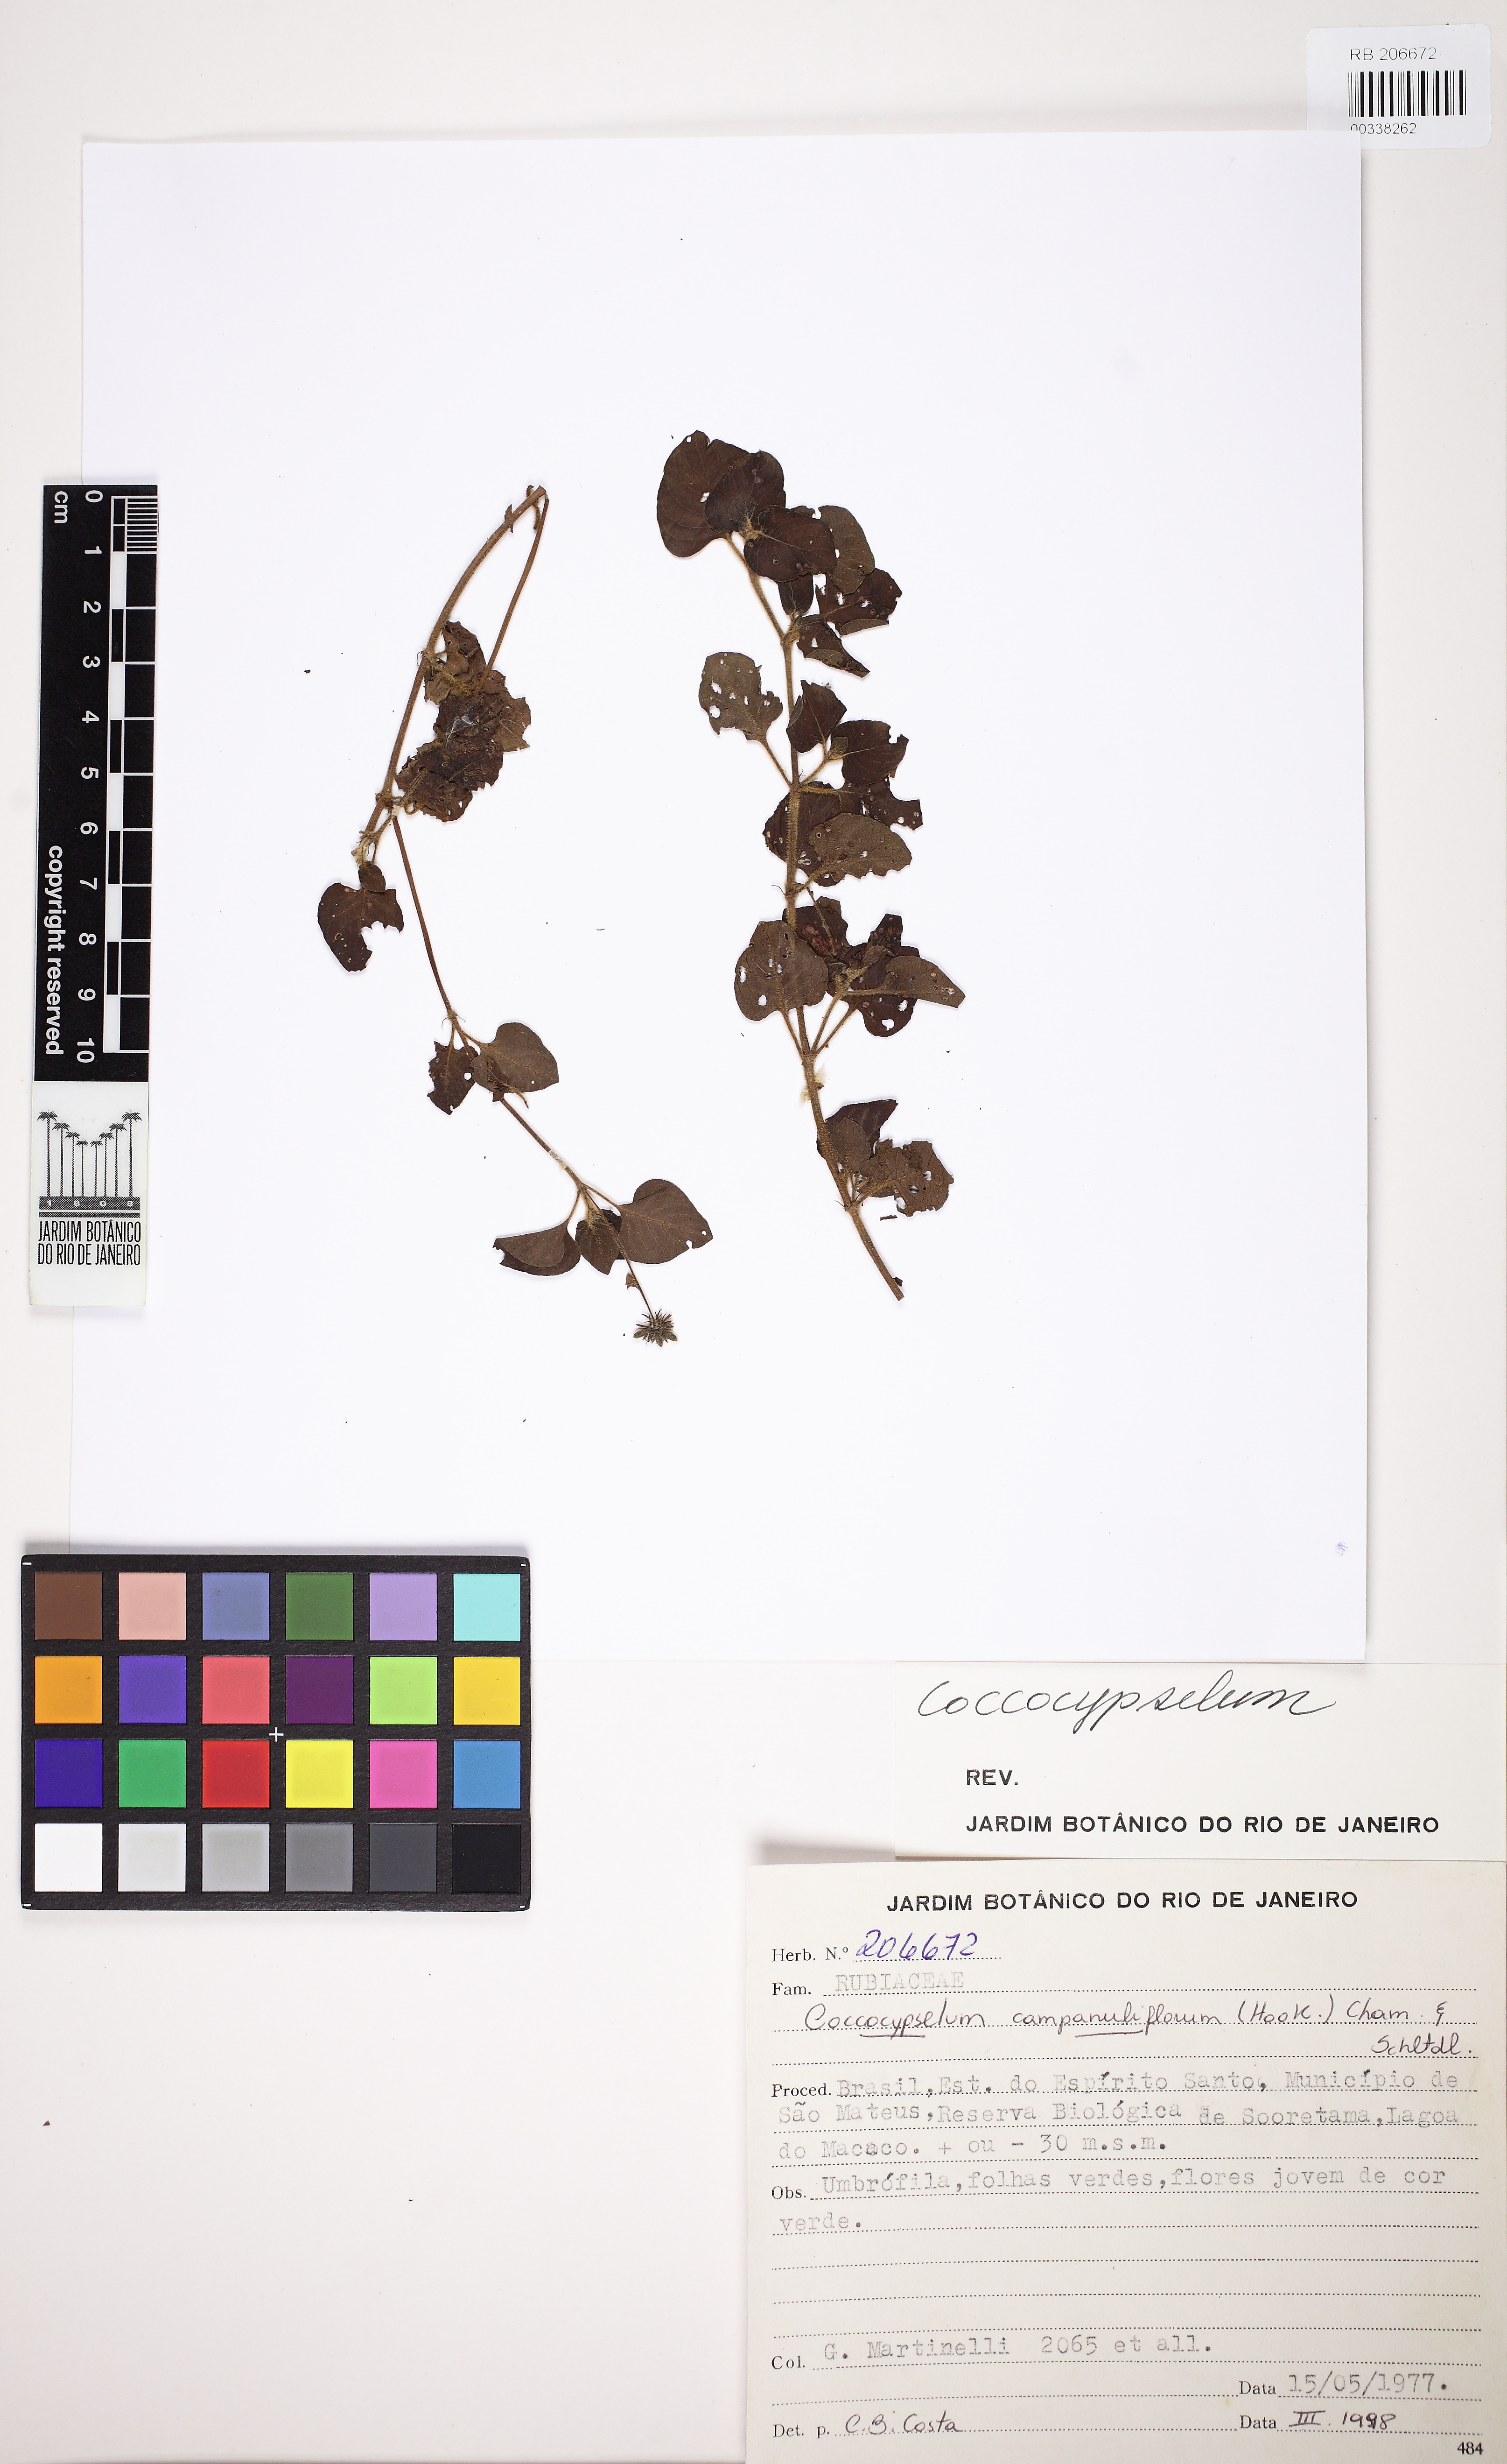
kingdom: Plantae
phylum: Tracheophyta
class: Magnoliopsida
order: Gentianales
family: Rubiaceae
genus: Coccocypselum
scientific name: Coccocypselum capitatum
